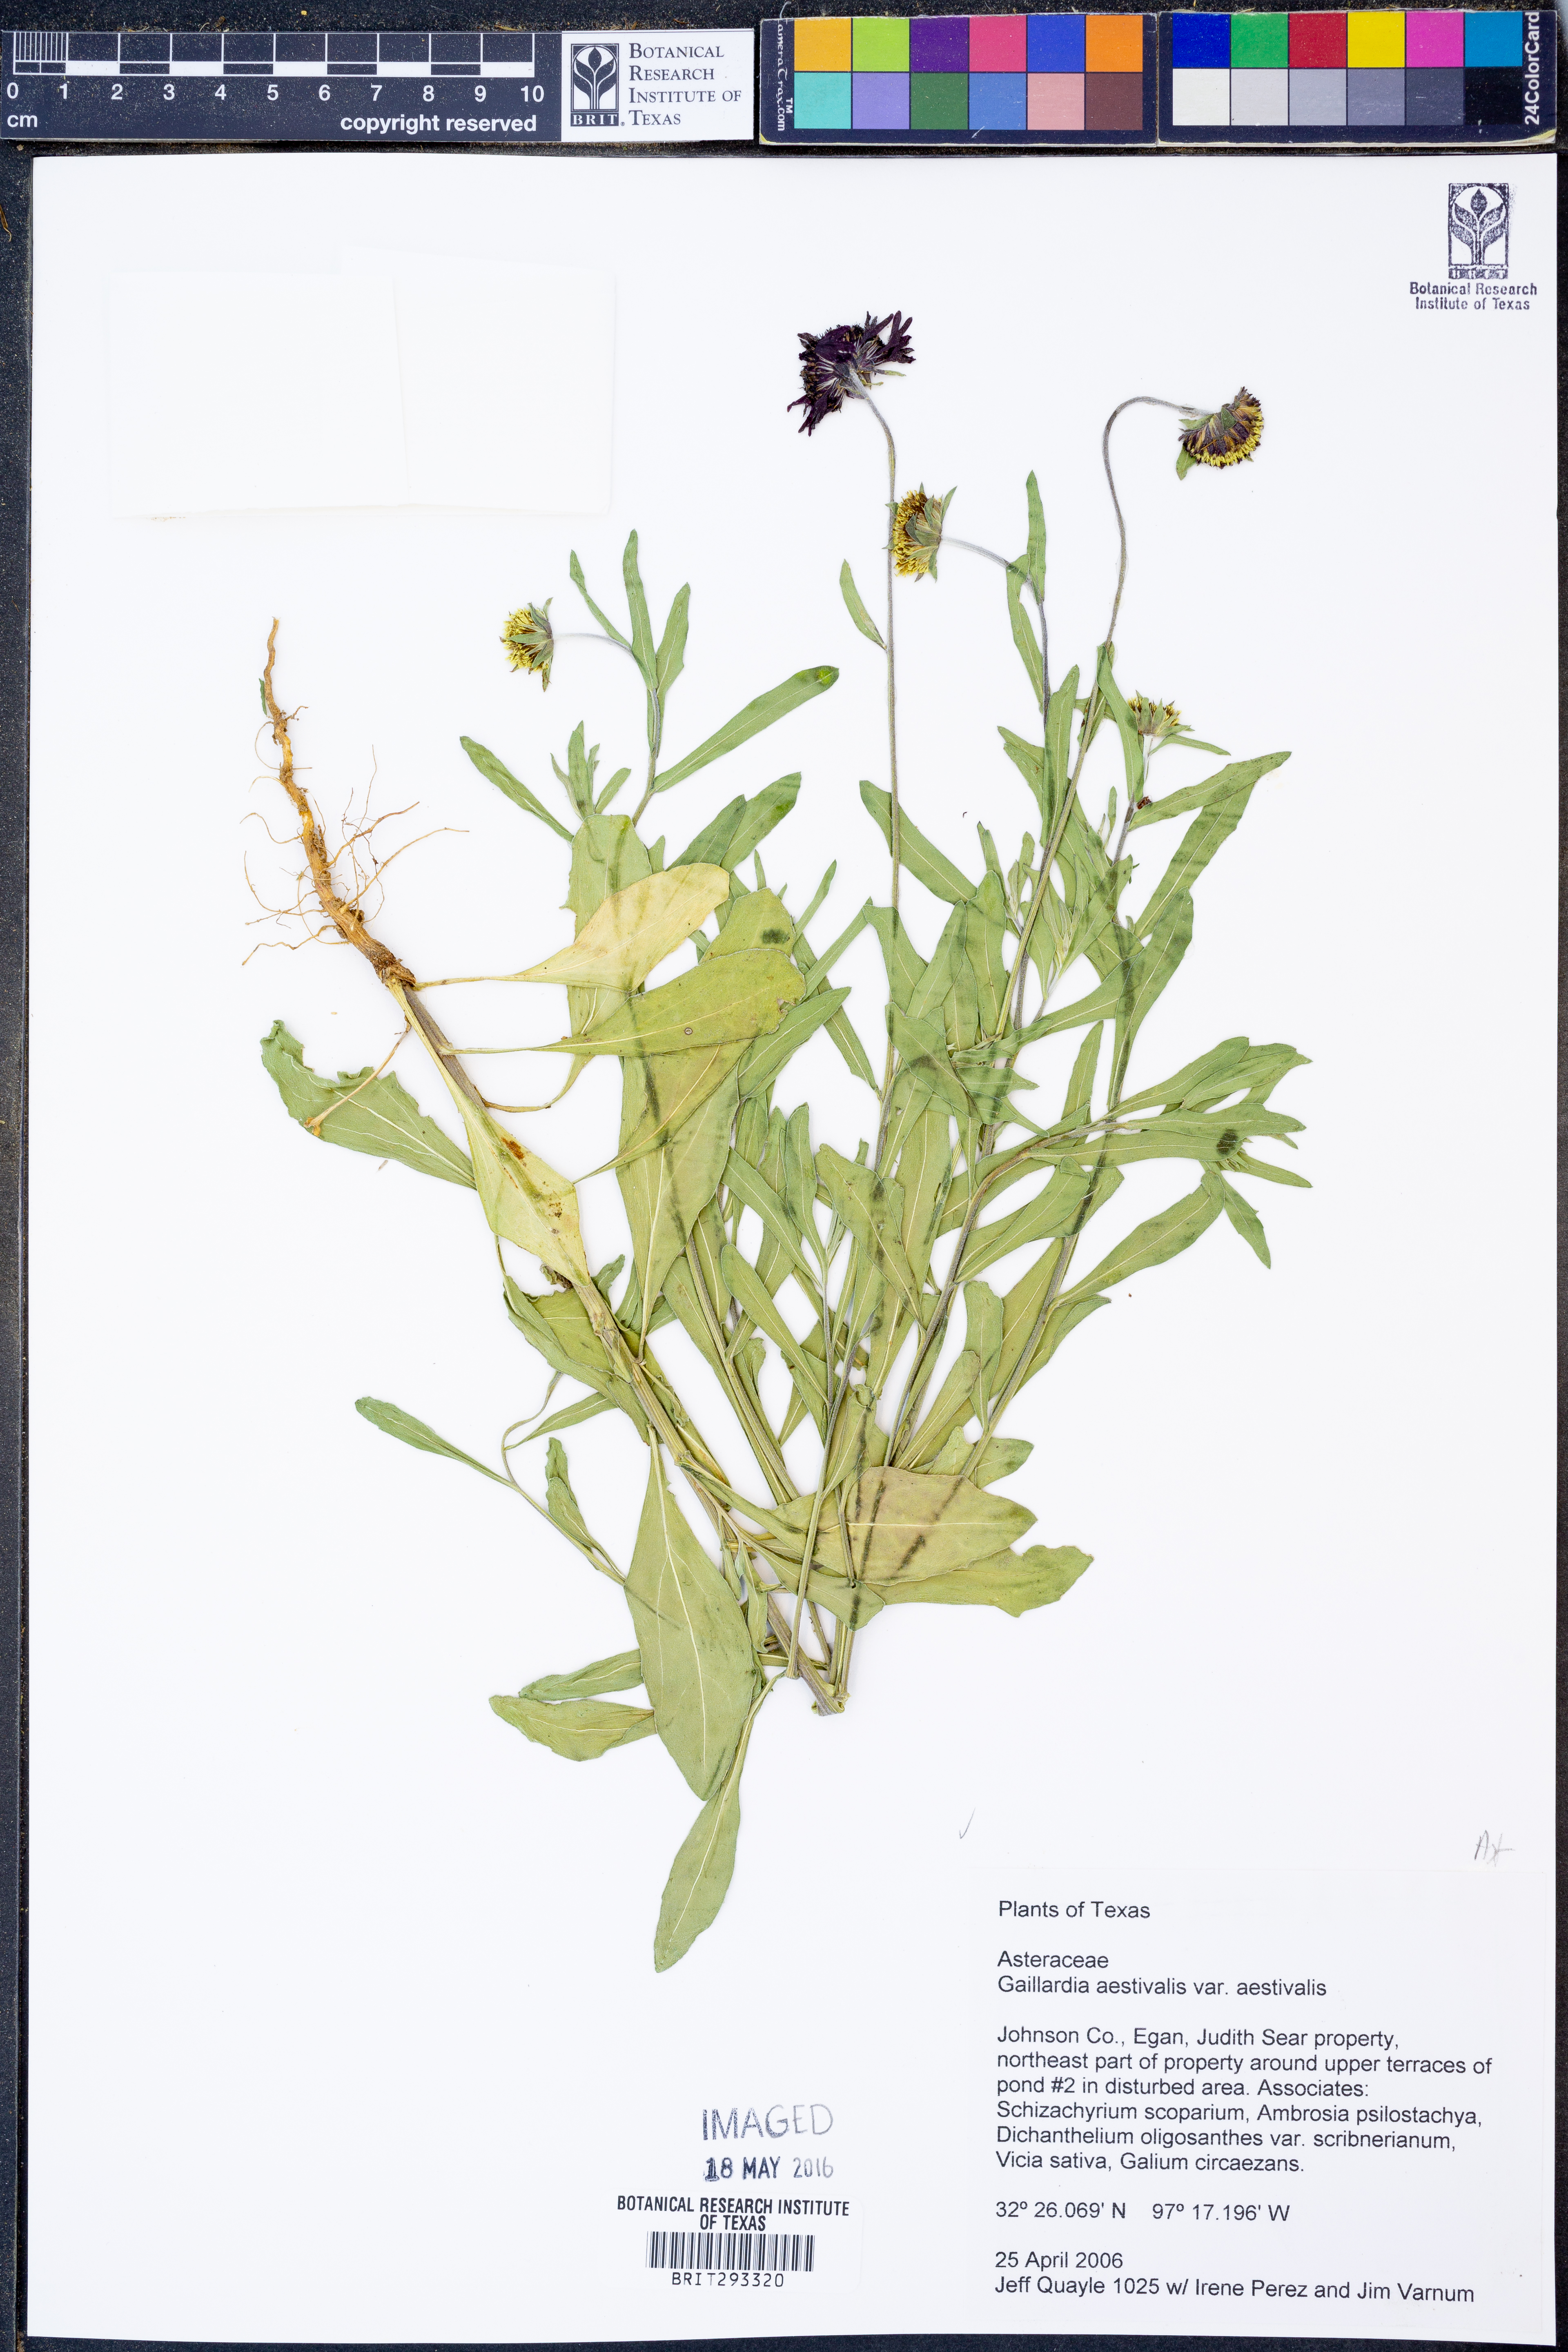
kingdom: Plantae
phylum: Tracheophyta
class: Magnoliopsida
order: Asterales
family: Asteraceae
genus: Gaillardia
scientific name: Gaillardia aestivalis
